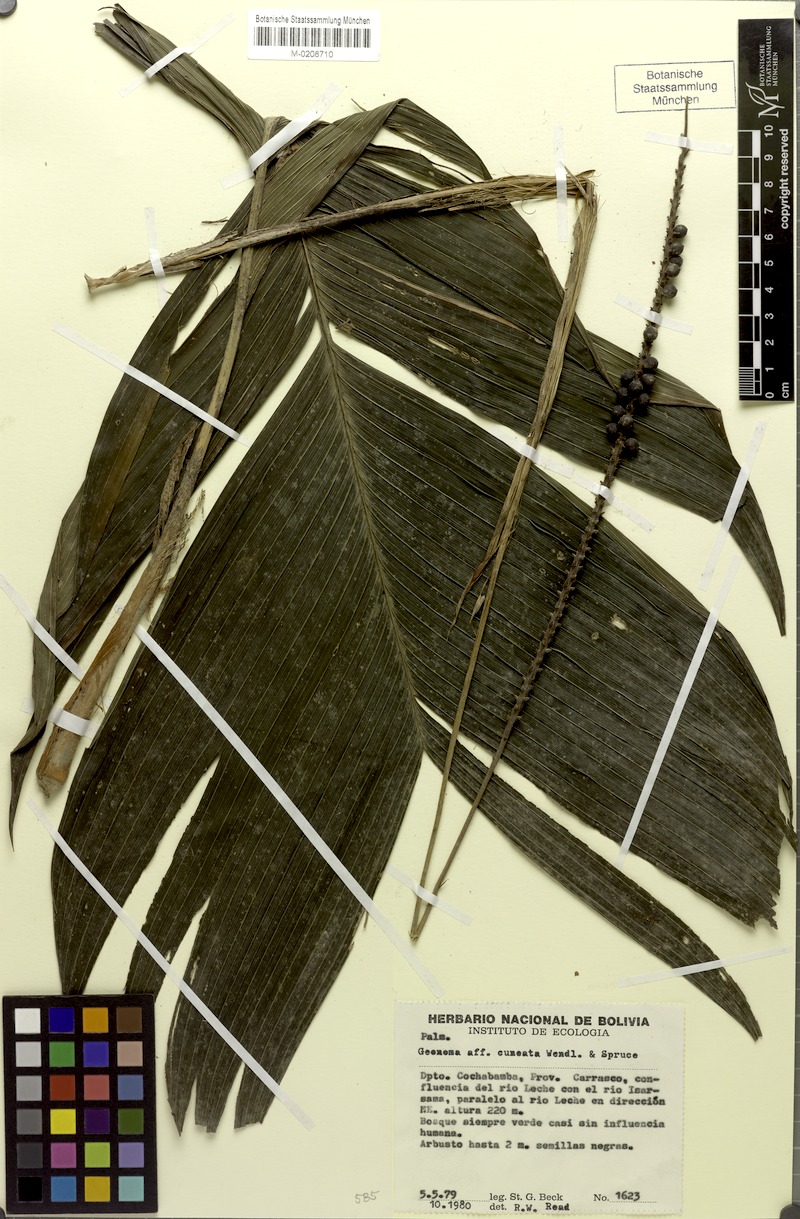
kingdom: Plantae
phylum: Tracheophyta
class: Liliopsida
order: Arecales
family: Arecaceae
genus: Geonoma
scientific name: Geonoma cuneata
